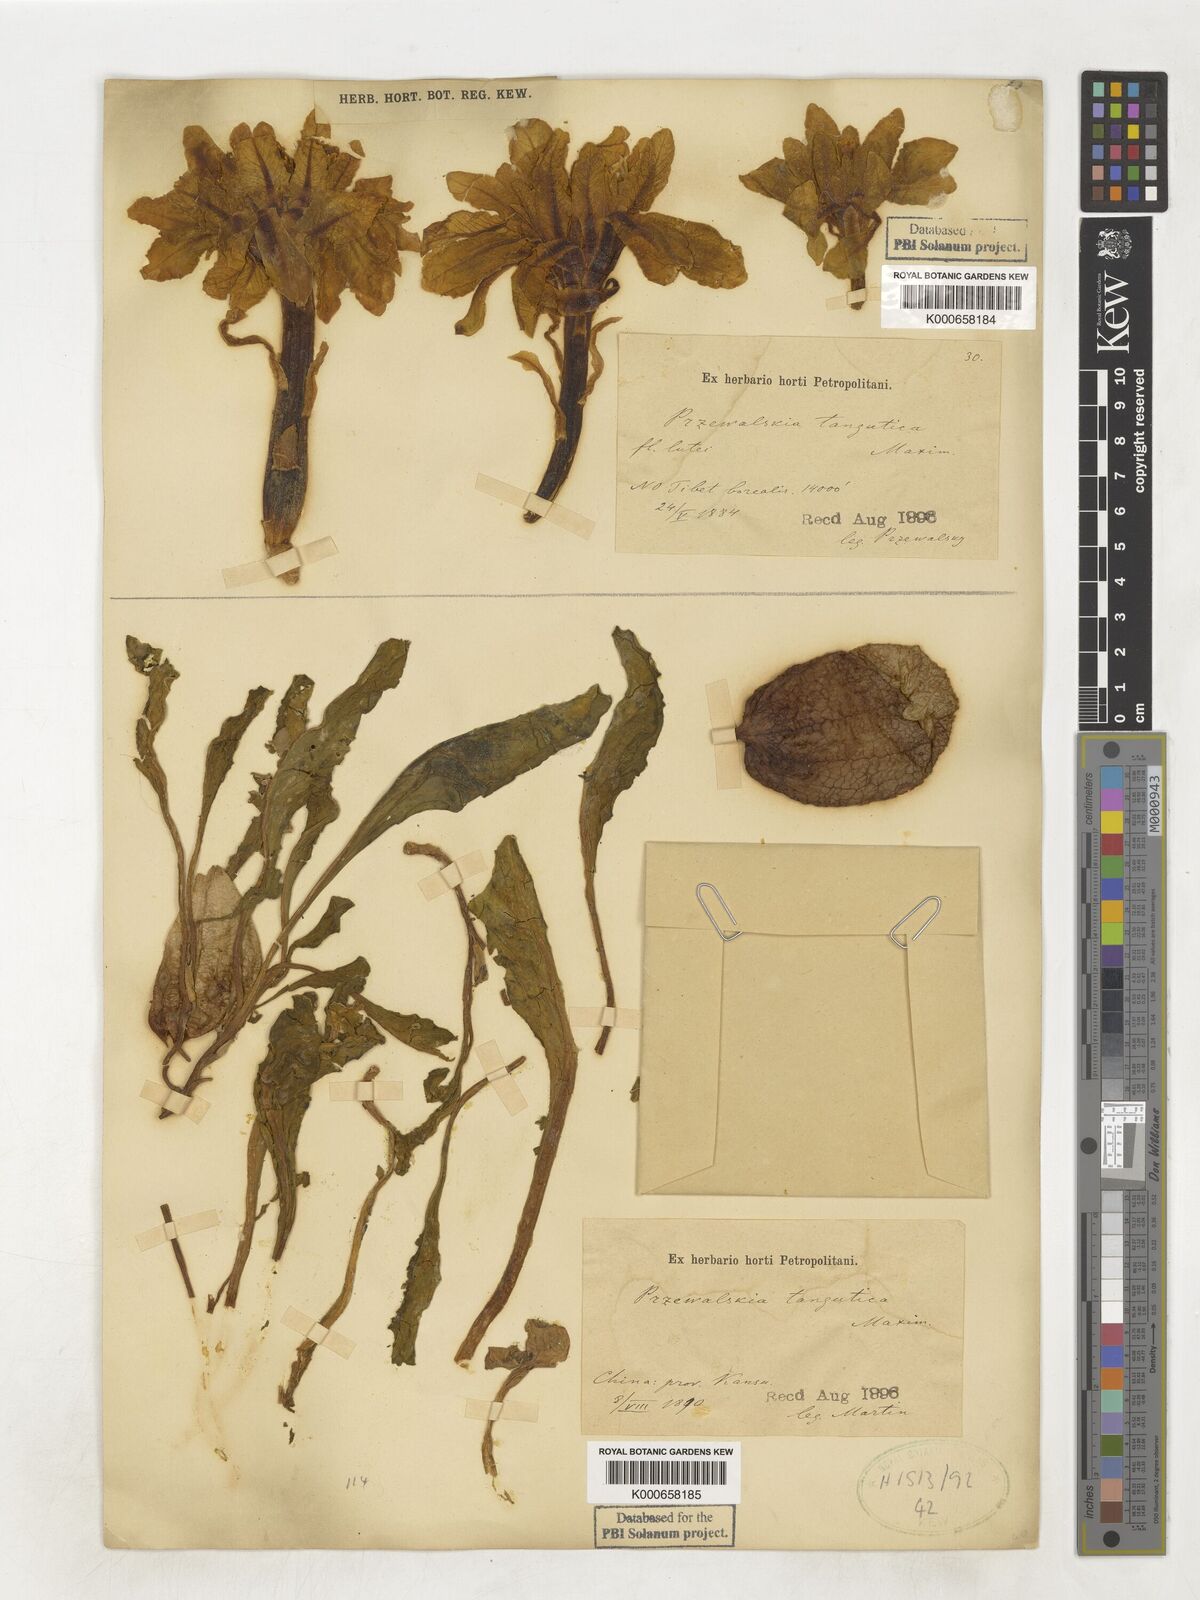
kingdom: Plantae
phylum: Tracheophyta
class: Magnoliopsida
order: Solanales
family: Solanaceae
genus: Przewalskia
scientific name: Przewalskia tangutica
